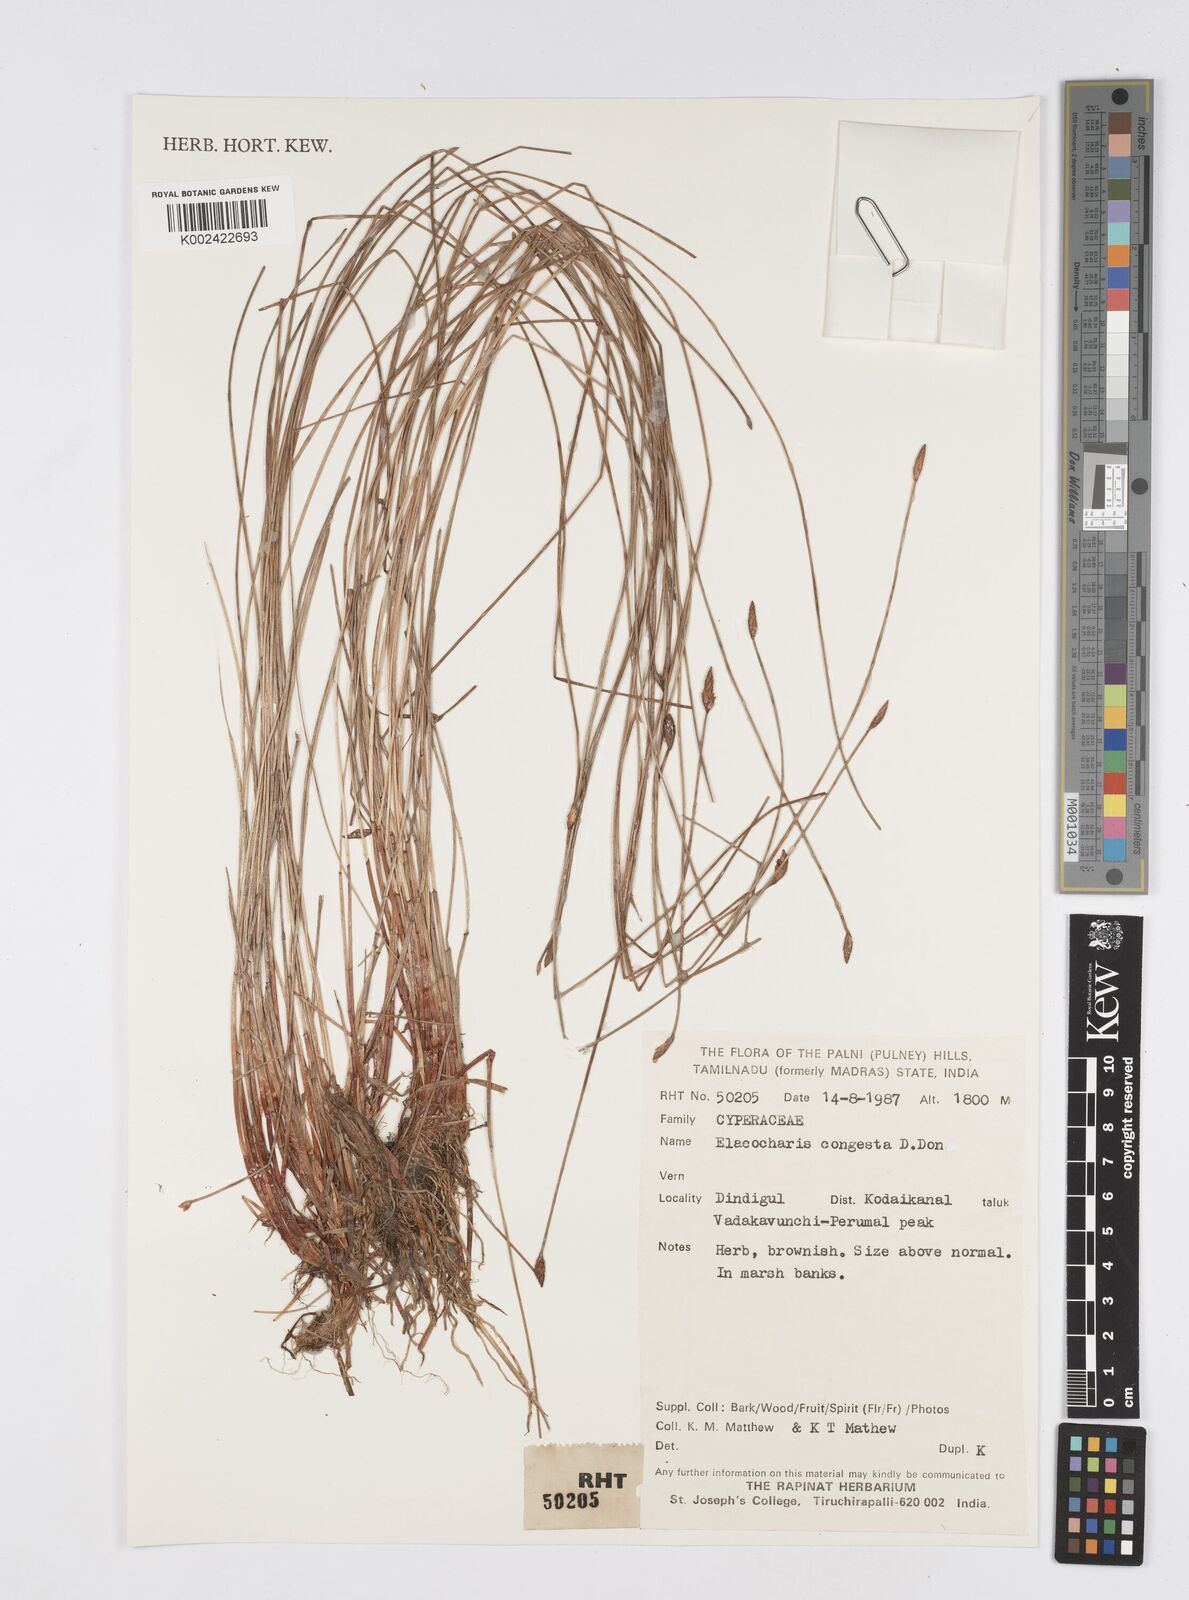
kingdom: Plantae
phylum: Tracheophyta
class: Liliopsida
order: Poales
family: Cyperaceae
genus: Eleocharis
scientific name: Eleocharis congesta
